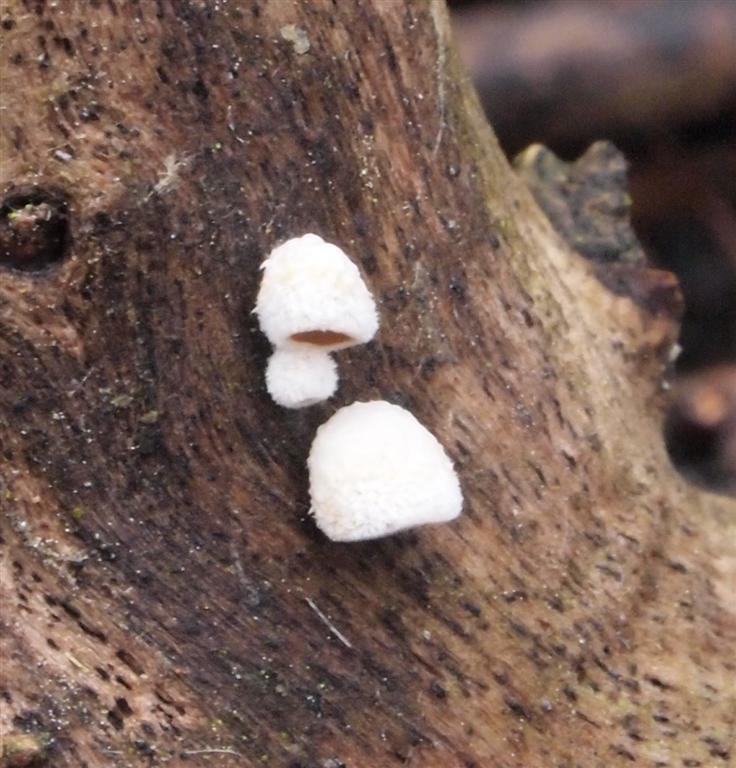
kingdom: Fungi
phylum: Basidiomycota
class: Agaricomycetes
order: Agaricales
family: Schizophyllaceae
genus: Schizophyllum
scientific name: Schizophyllum amplum
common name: poppel-hængeøre
